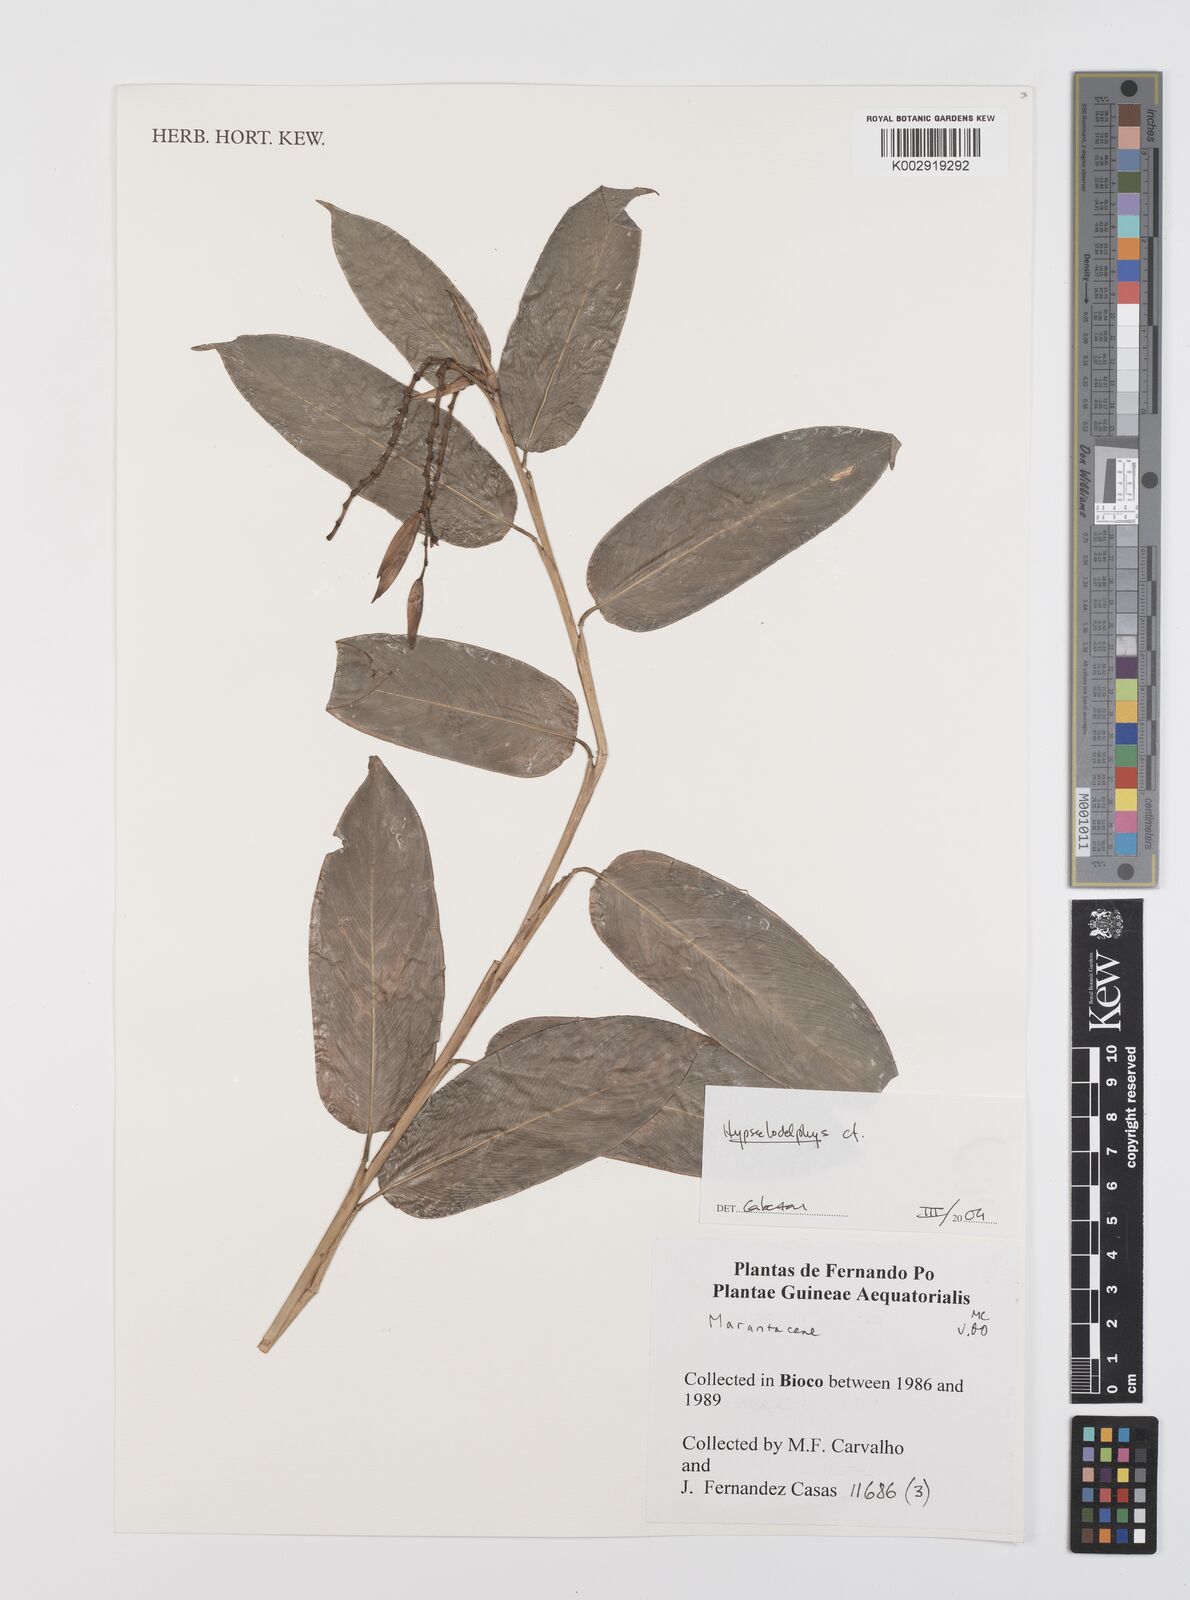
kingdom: Plantae
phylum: Tracheophyta
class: Liliopsida
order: Zingiberales
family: Marantaceae
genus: Hypselodelphys
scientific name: Hypselodelphys
